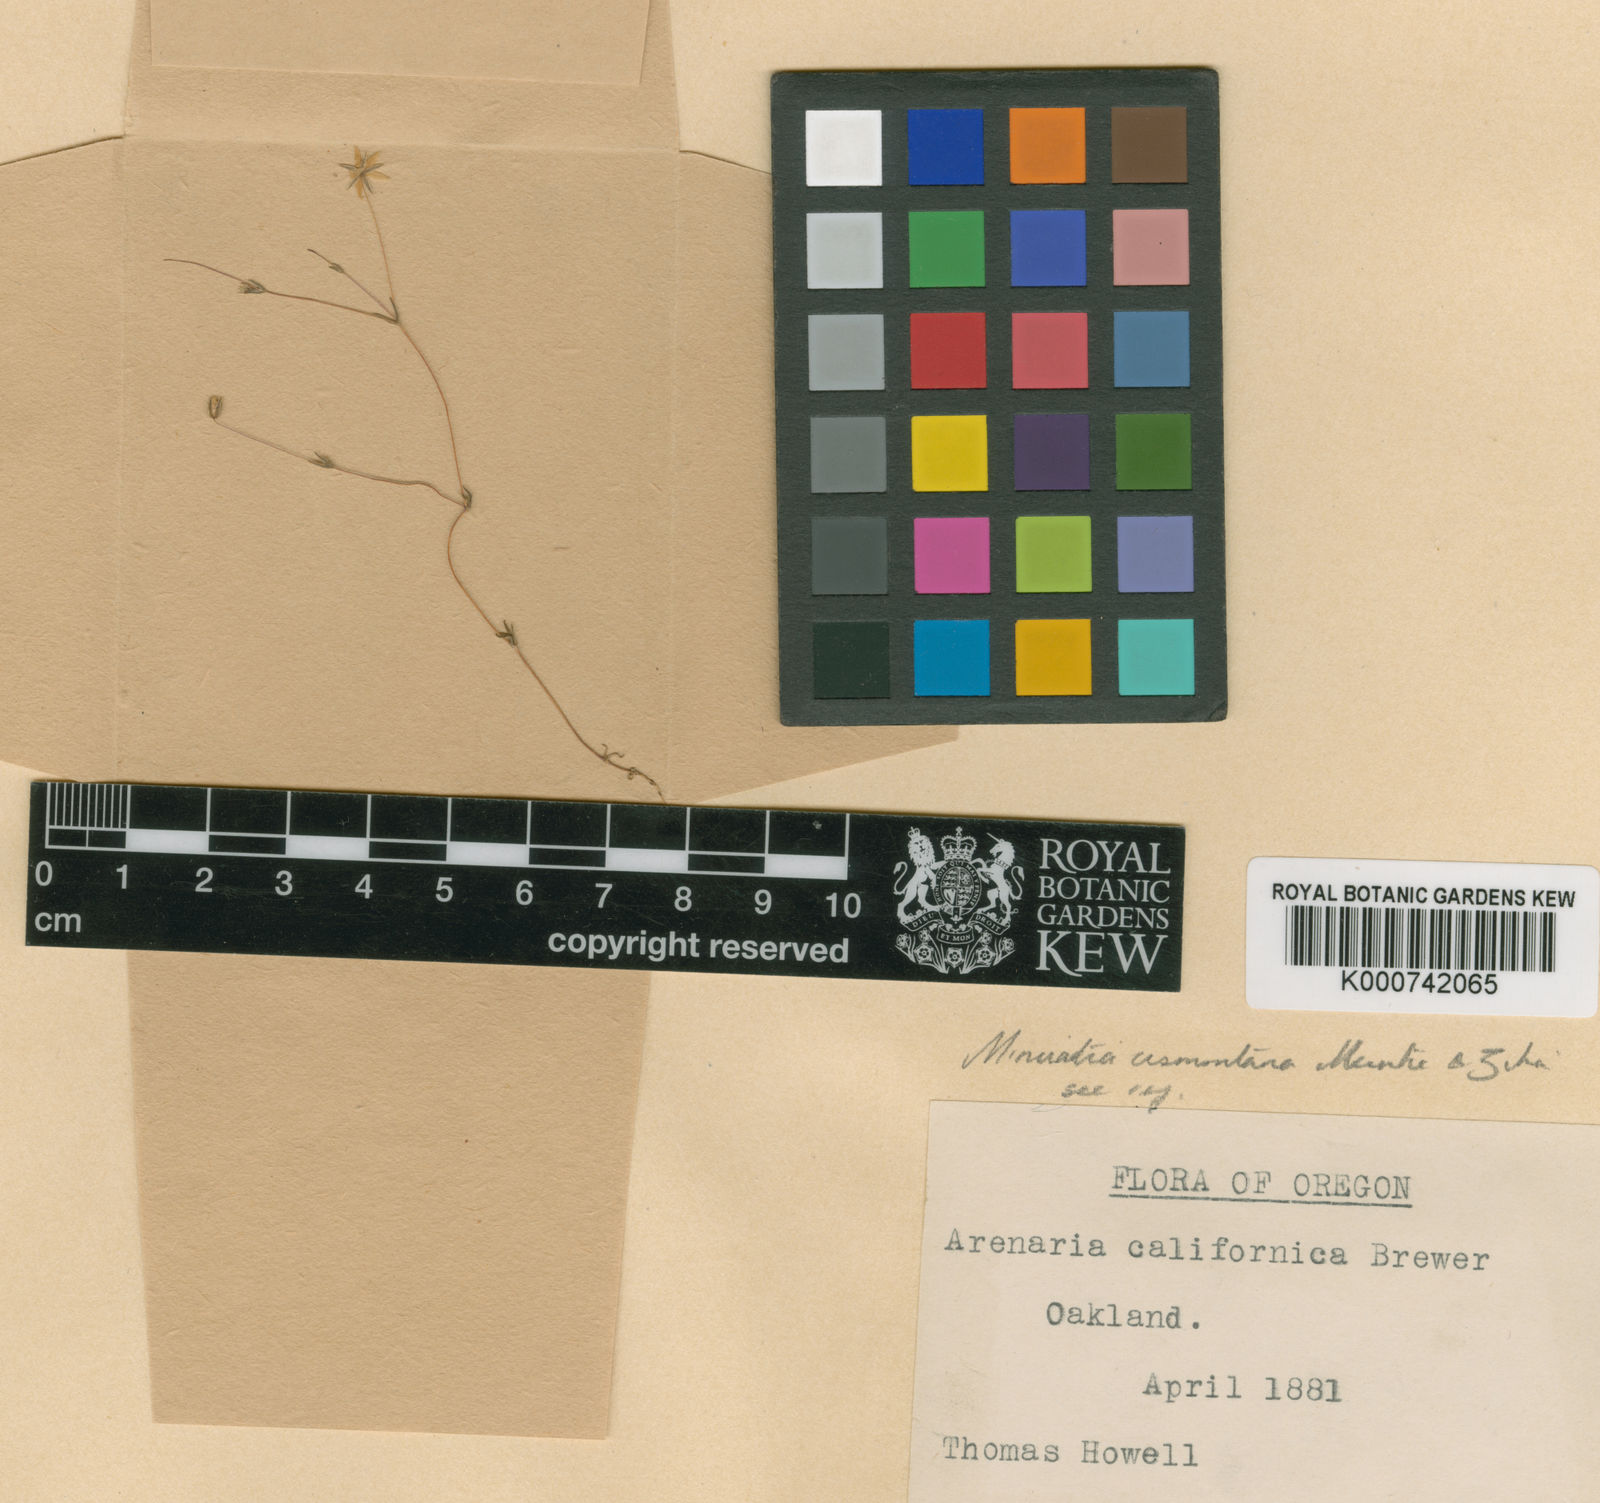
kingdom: Plantae
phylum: Tracheophyta
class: Magnoliopsida
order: Caryophyllales
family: Caryophyllaceae
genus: Sabulina
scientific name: Sabulina cismontana
